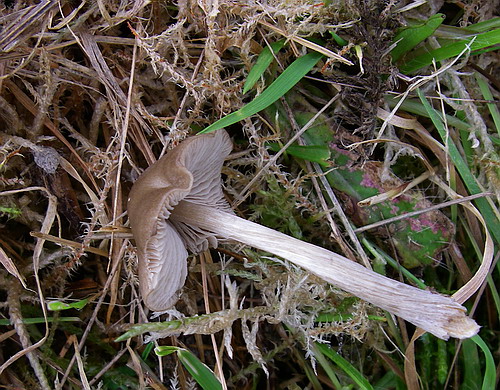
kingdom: Fungi
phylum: Basidiomycota
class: Agaricomycetes
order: Agaricales
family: Entolomataceae
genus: Entoloma
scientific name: Entoloma conferendum
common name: stjernesporet rødblad
